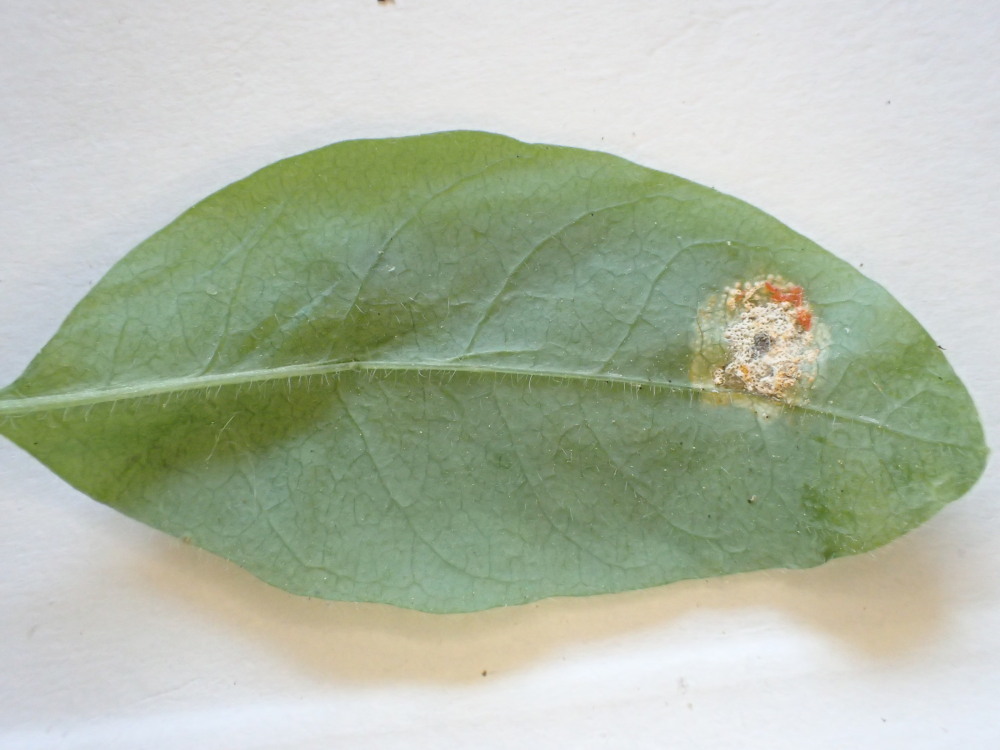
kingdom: Fungi
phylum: Basidiomycota
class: Pucciniomycetes
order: Pucciniales
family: Pucciniaceae
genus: Puccinia
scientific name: Puccinia festucae
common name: gedeblad-tvecellerust
